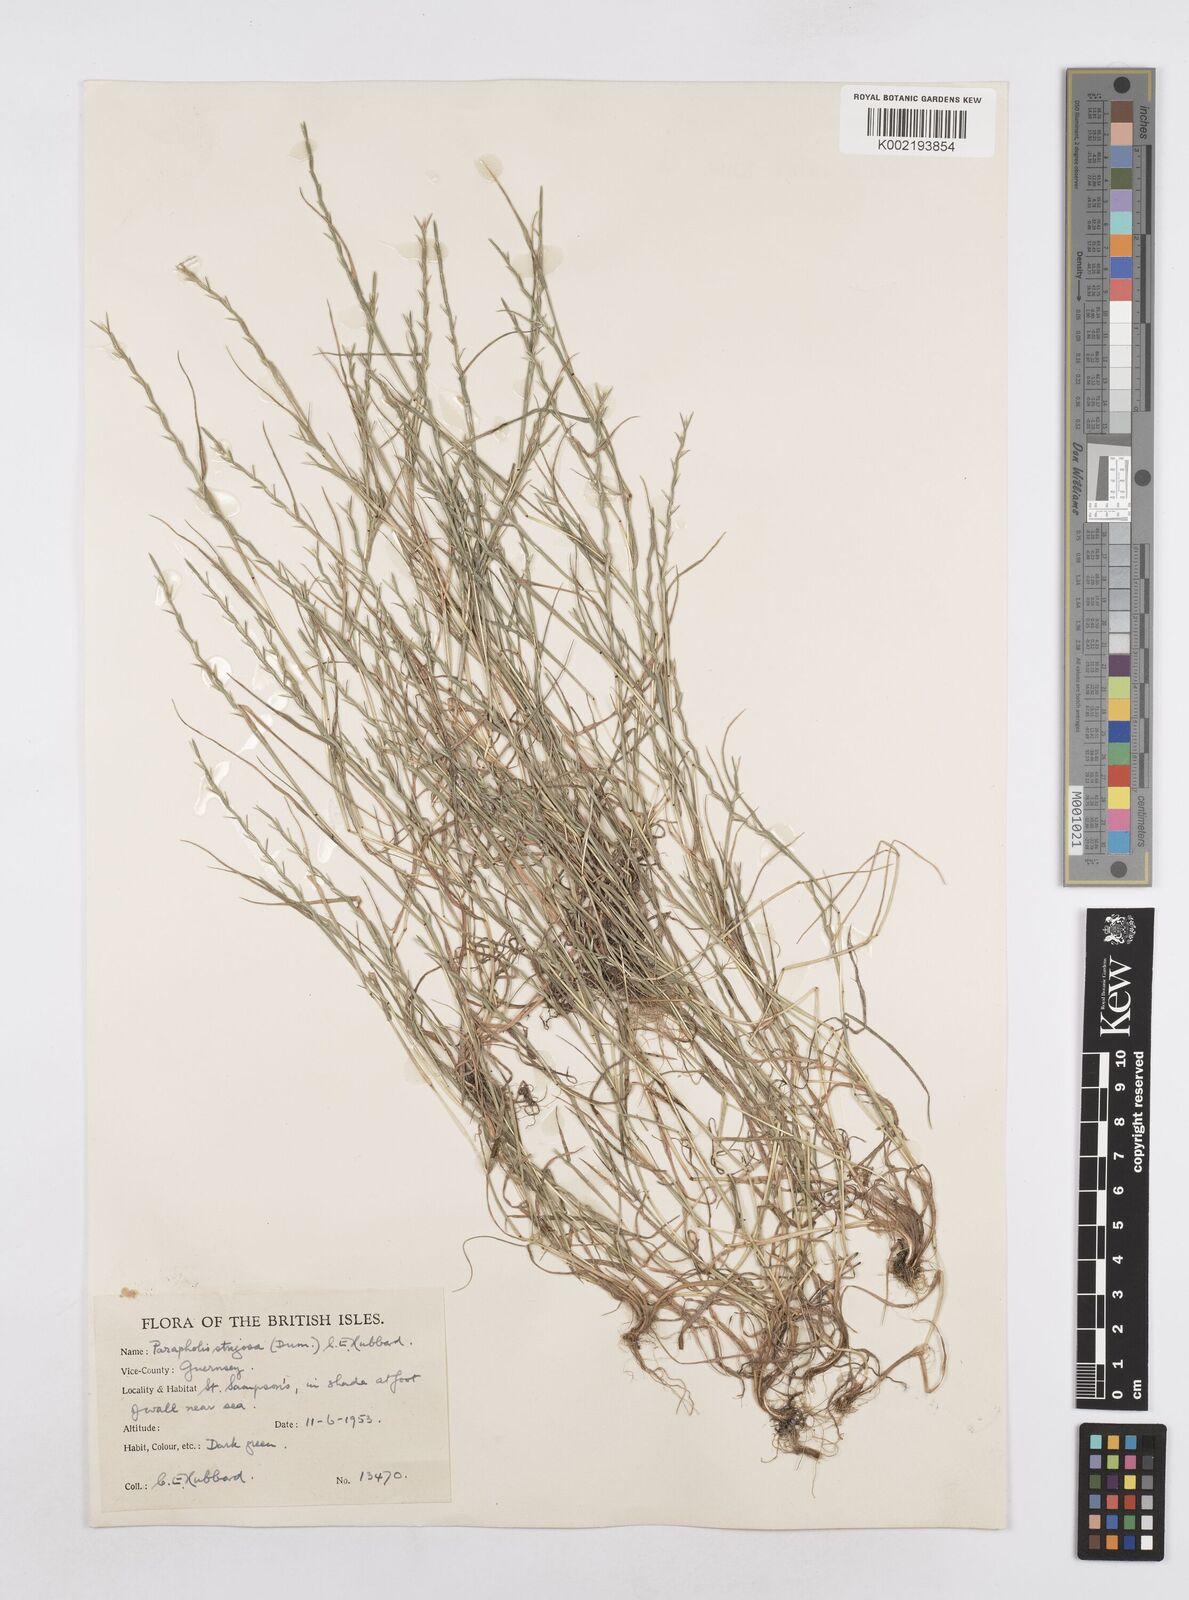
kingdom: Plantae
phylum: Tracheophyta
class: Liliopsida
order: Poales
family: Poaceae
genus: Parapholis
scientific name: Parapholis strigosa
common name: Hard-grass
